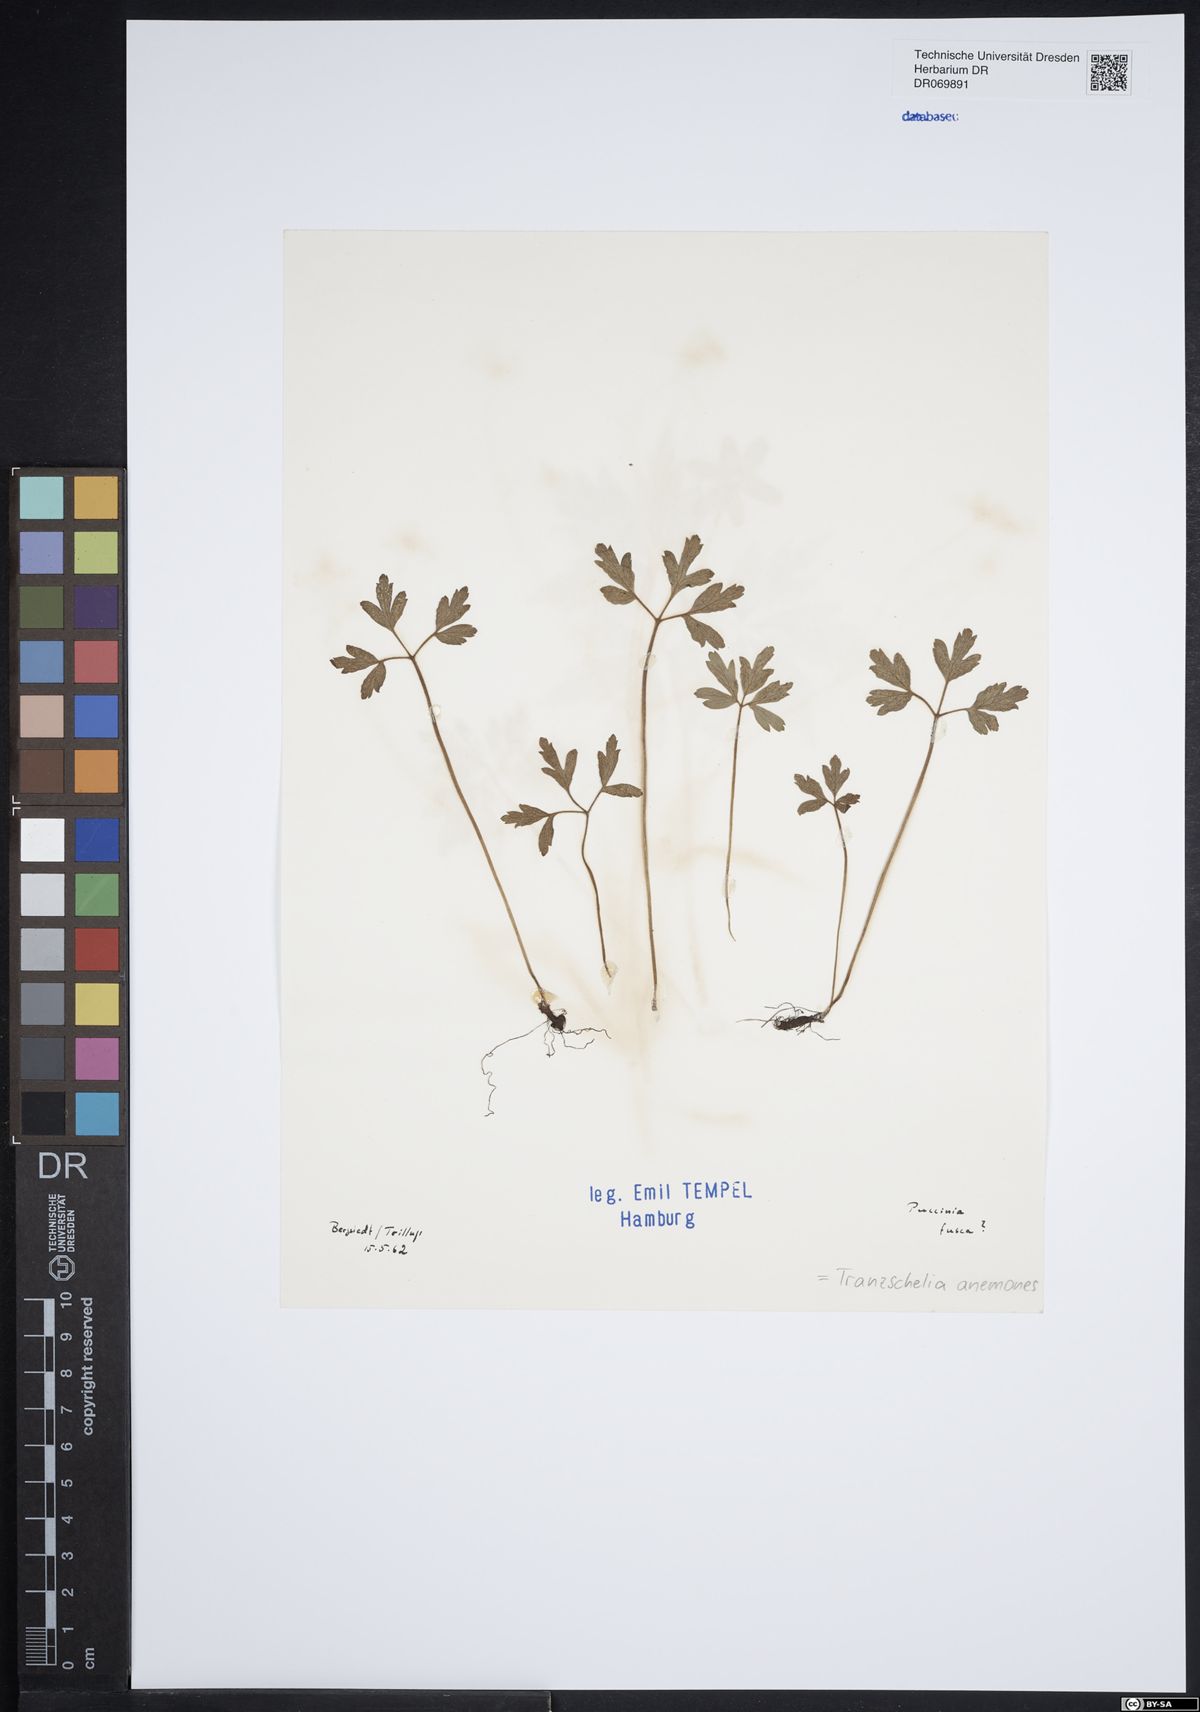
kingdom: Fungi
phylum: Basidiomycota
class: Pucciniomycetes
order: Pucciniales
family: Tranzscheliaceae
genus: Tranzschelia
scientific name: Tranzschelia anemones
